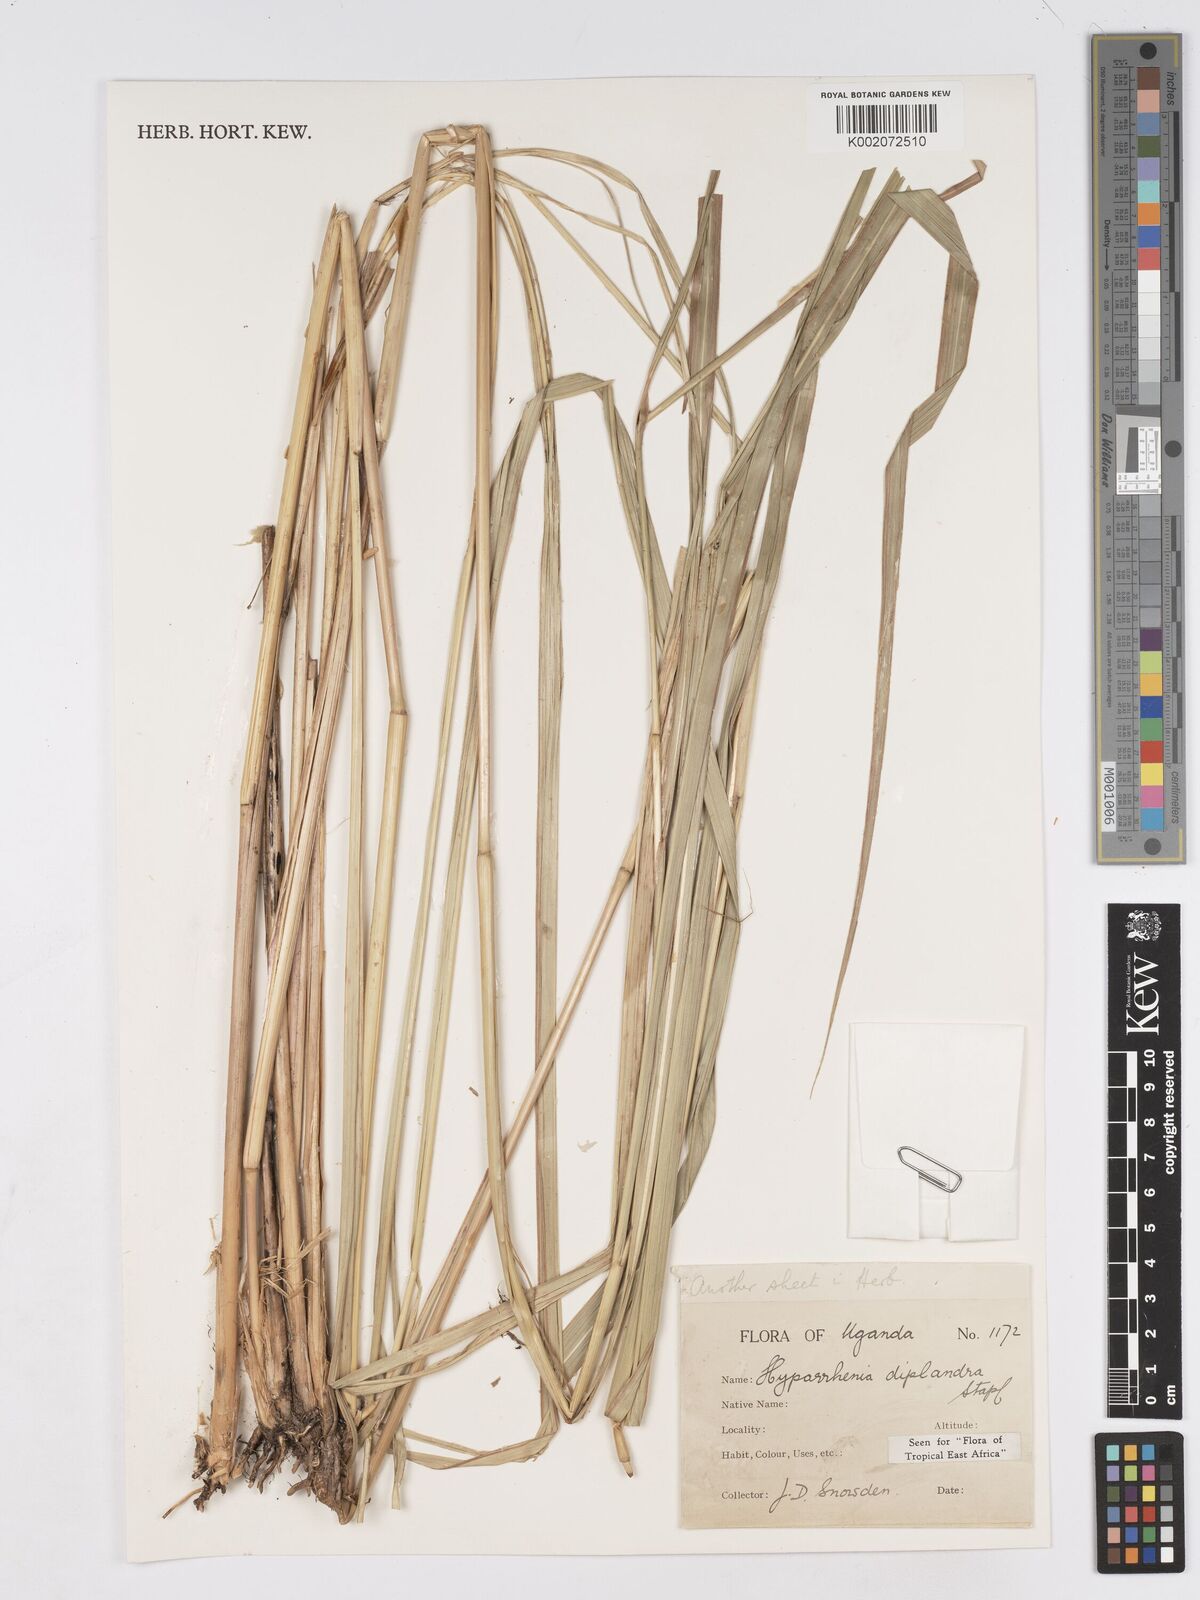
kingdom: Plantae
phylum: Tracheophyta
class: Liliopsida
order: Poales
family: Poaceae
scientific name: Poaceae
